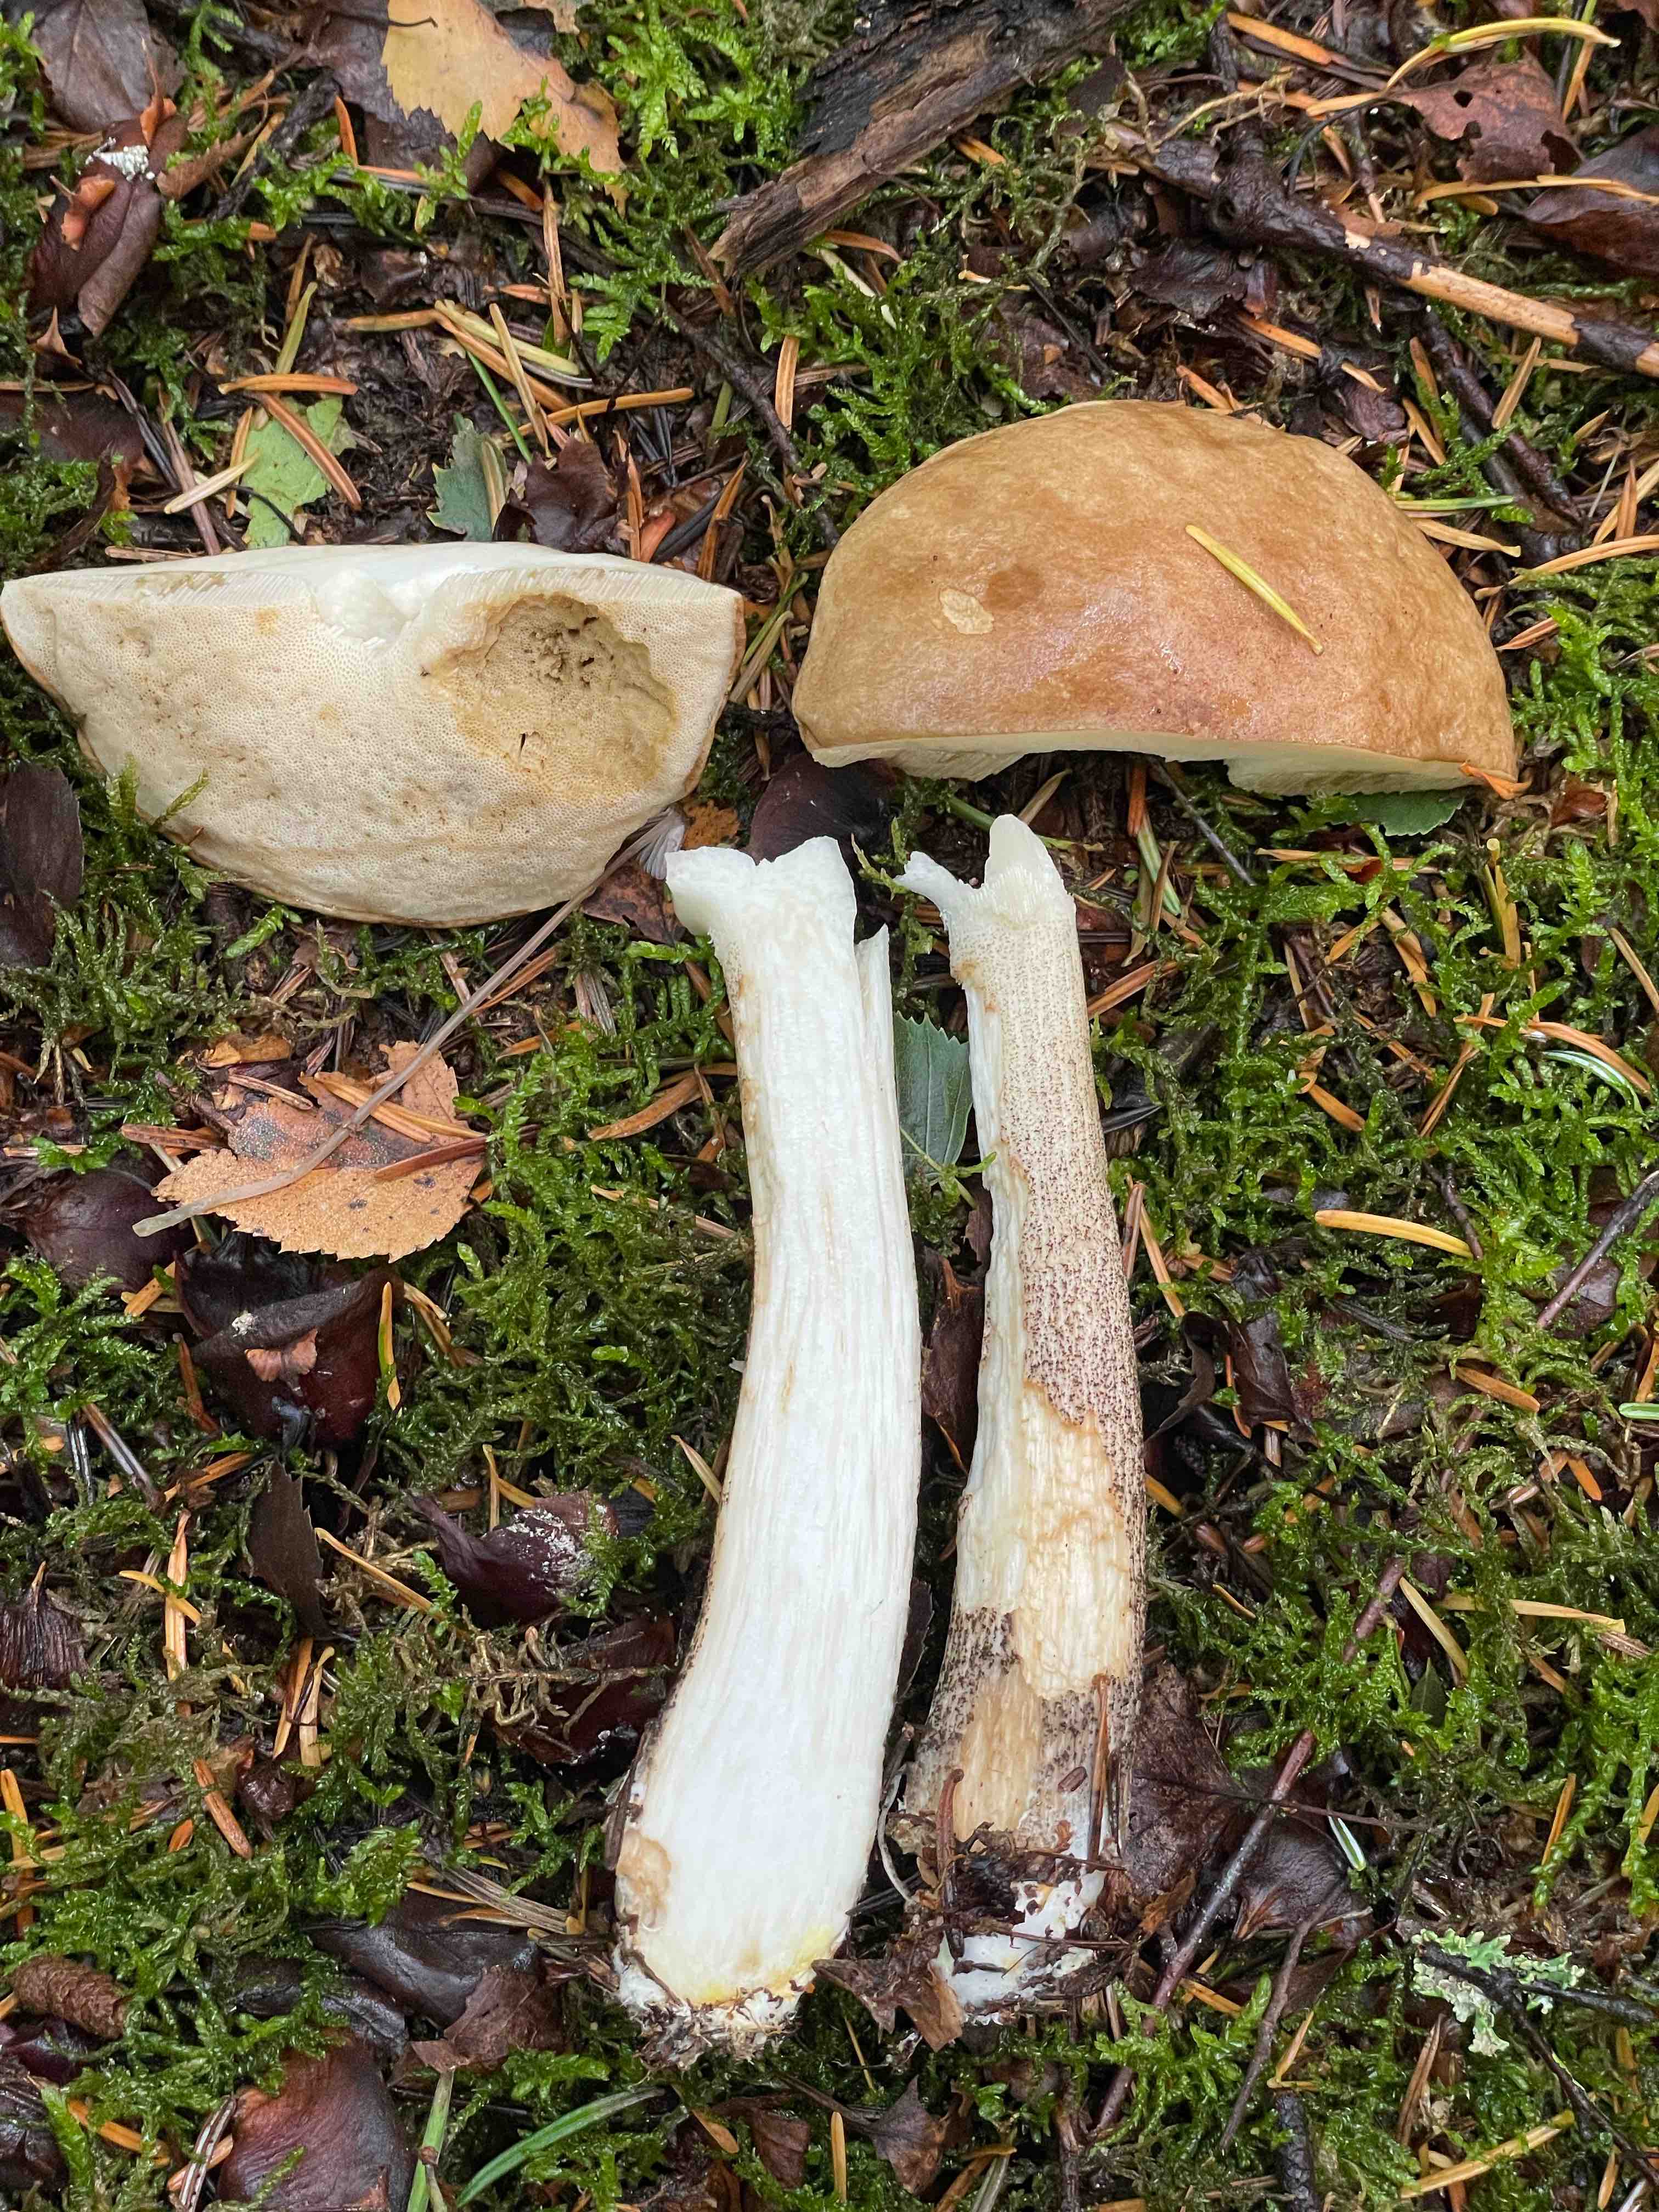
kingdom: Fungi
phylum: Basidiomycota
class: Agaricomycetes
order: Boletales
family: Boletaceae
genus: Leccinum
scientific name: Leccinum scabrum
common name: brun skælrørhat
